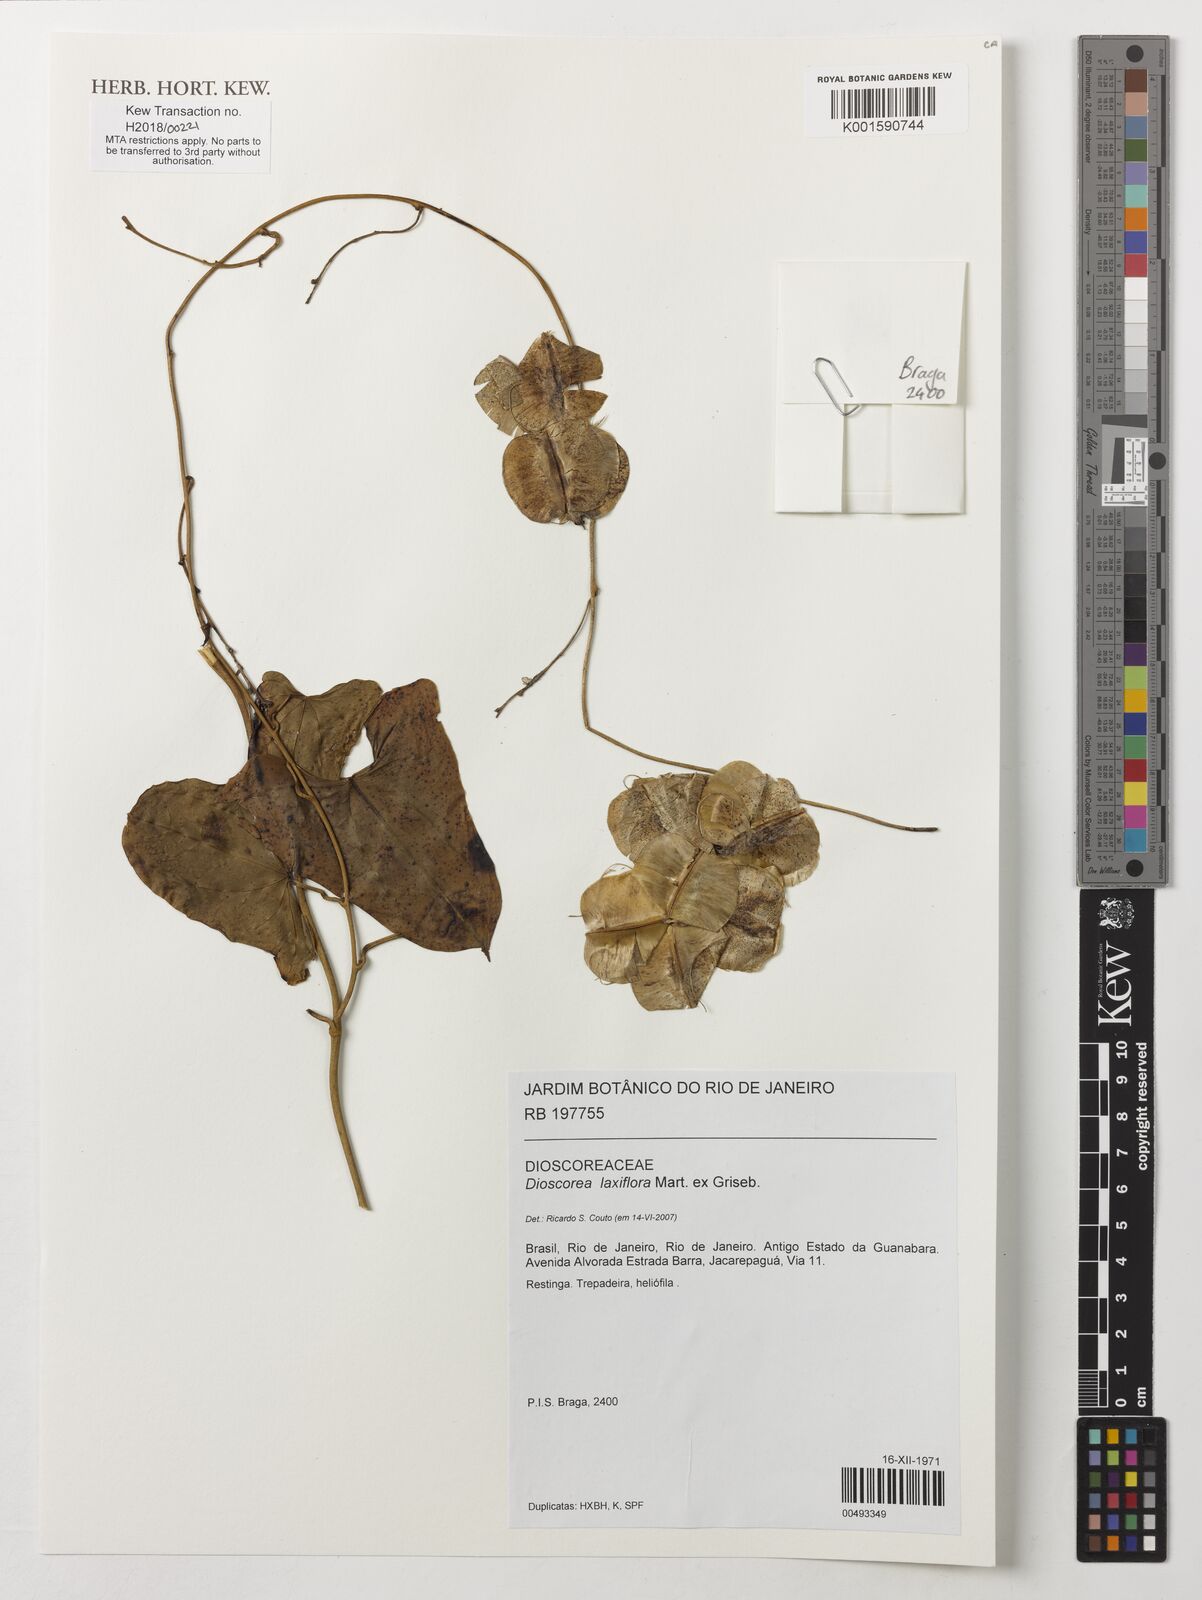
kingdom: Plantae
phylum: Tracheophyta
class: Liliopsida
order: Dioscoreales
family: Dioscoreaceae
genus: Dioscorea
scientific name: Dioscorea laxiflora
